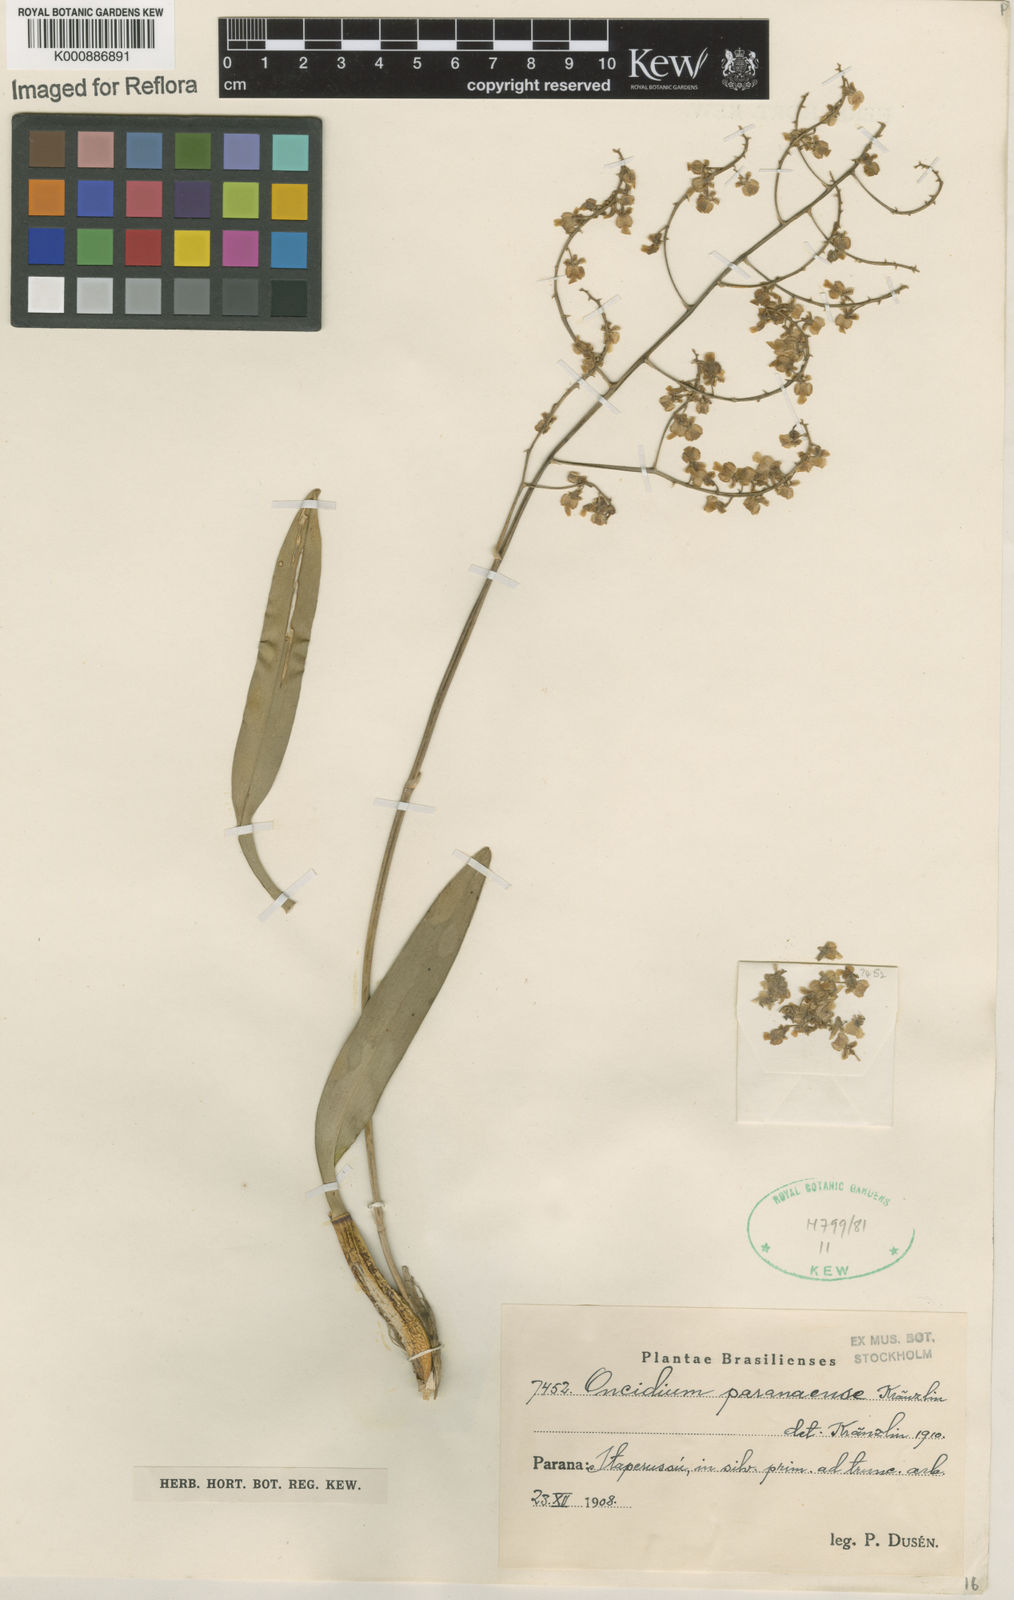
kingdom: Plantae
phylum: Tracheophyta
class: Liliopsida
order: Asparagales
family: Orchidaceae
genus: Gomesa
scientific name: Gomesa paranensoides
